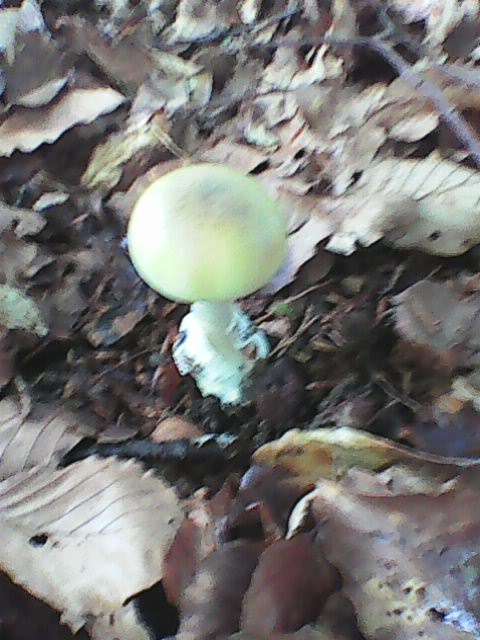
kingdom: Fungi
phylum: Basidiomycota
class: Agaricomycetes
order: Agaricales
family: Amanitaceae
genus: Amanita
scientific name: Amanita phalloides
